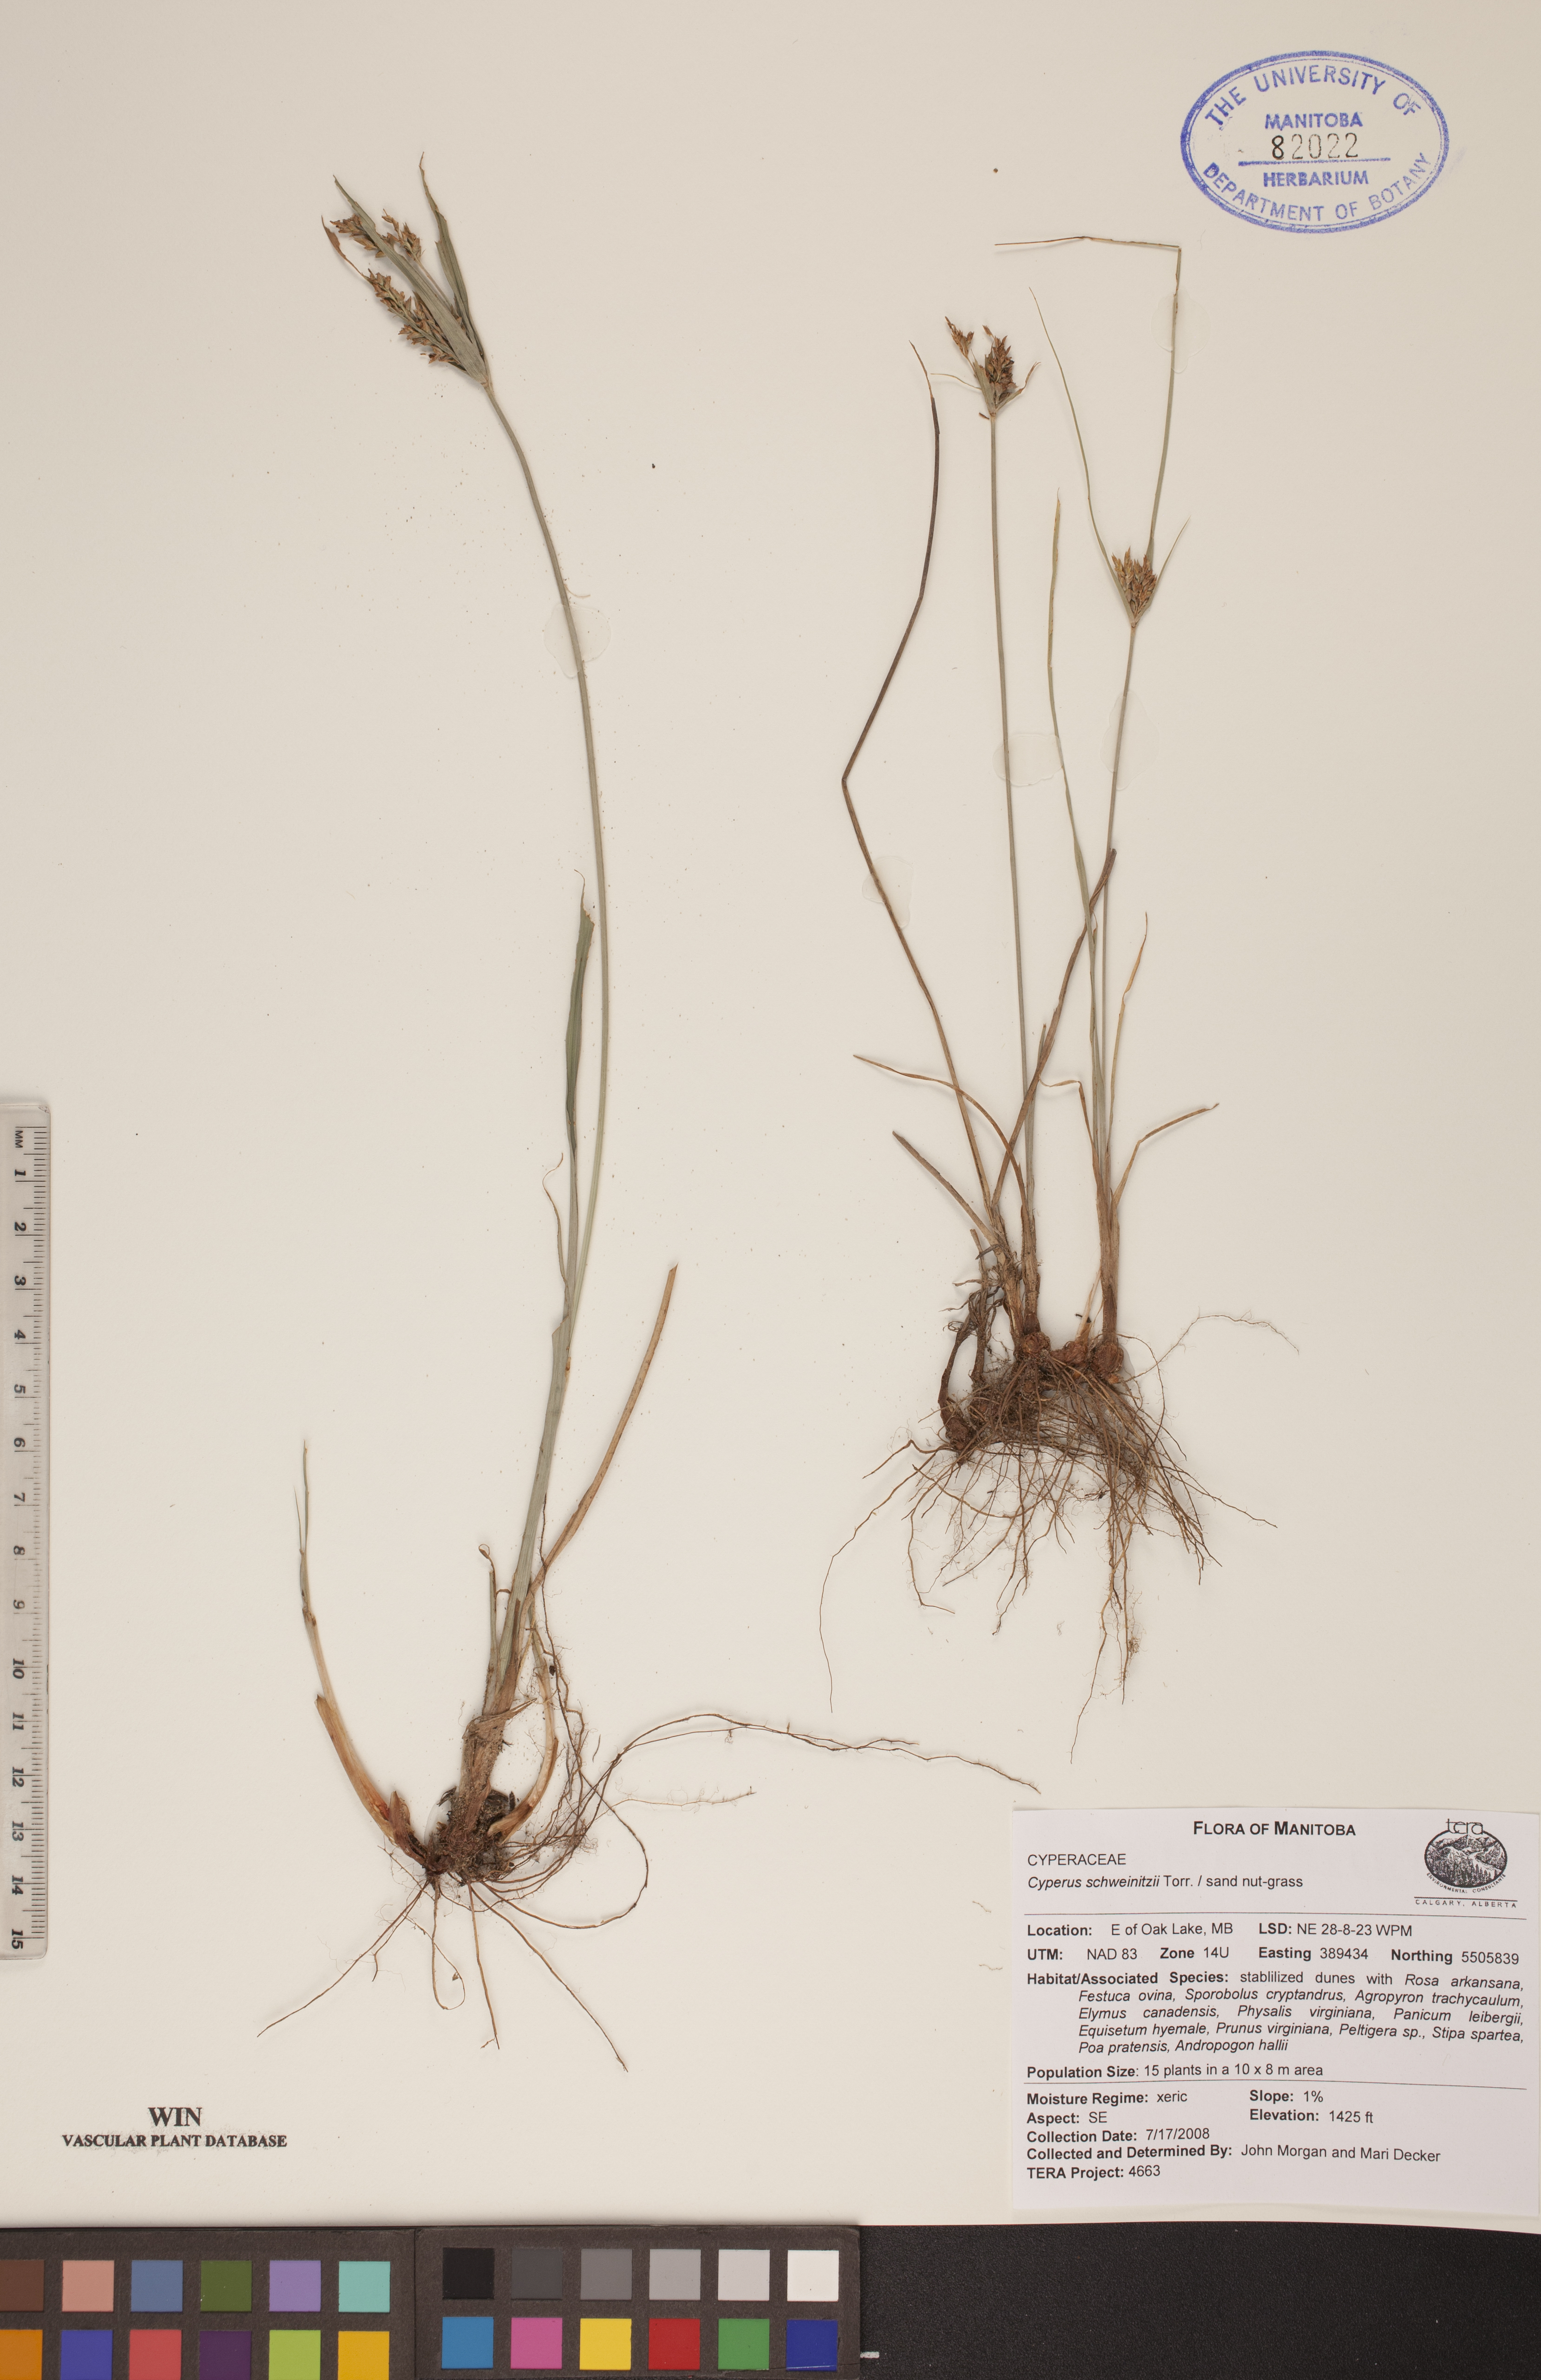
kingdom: Plantae
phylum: Tracheophyta
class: Liliopsida
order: Poales
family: Cyperaceae
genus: Cyperus
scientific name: Cyperus schweinitzii
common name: Schweinitz's cyperus
